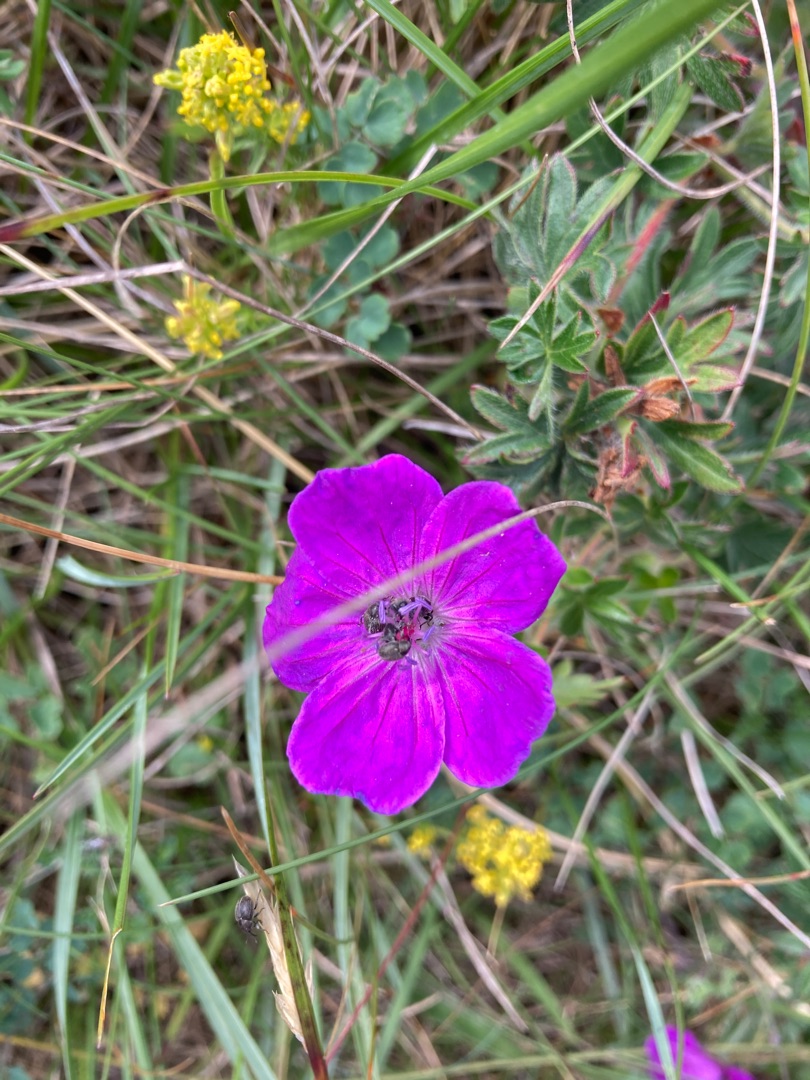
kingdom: Plantae
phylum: Tracheophyta
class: Magnoliopsida
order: Geraniales
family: Geraniaceae
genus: Geranium
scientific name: Geranium sanguineum
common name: Blodrød storkenæb
